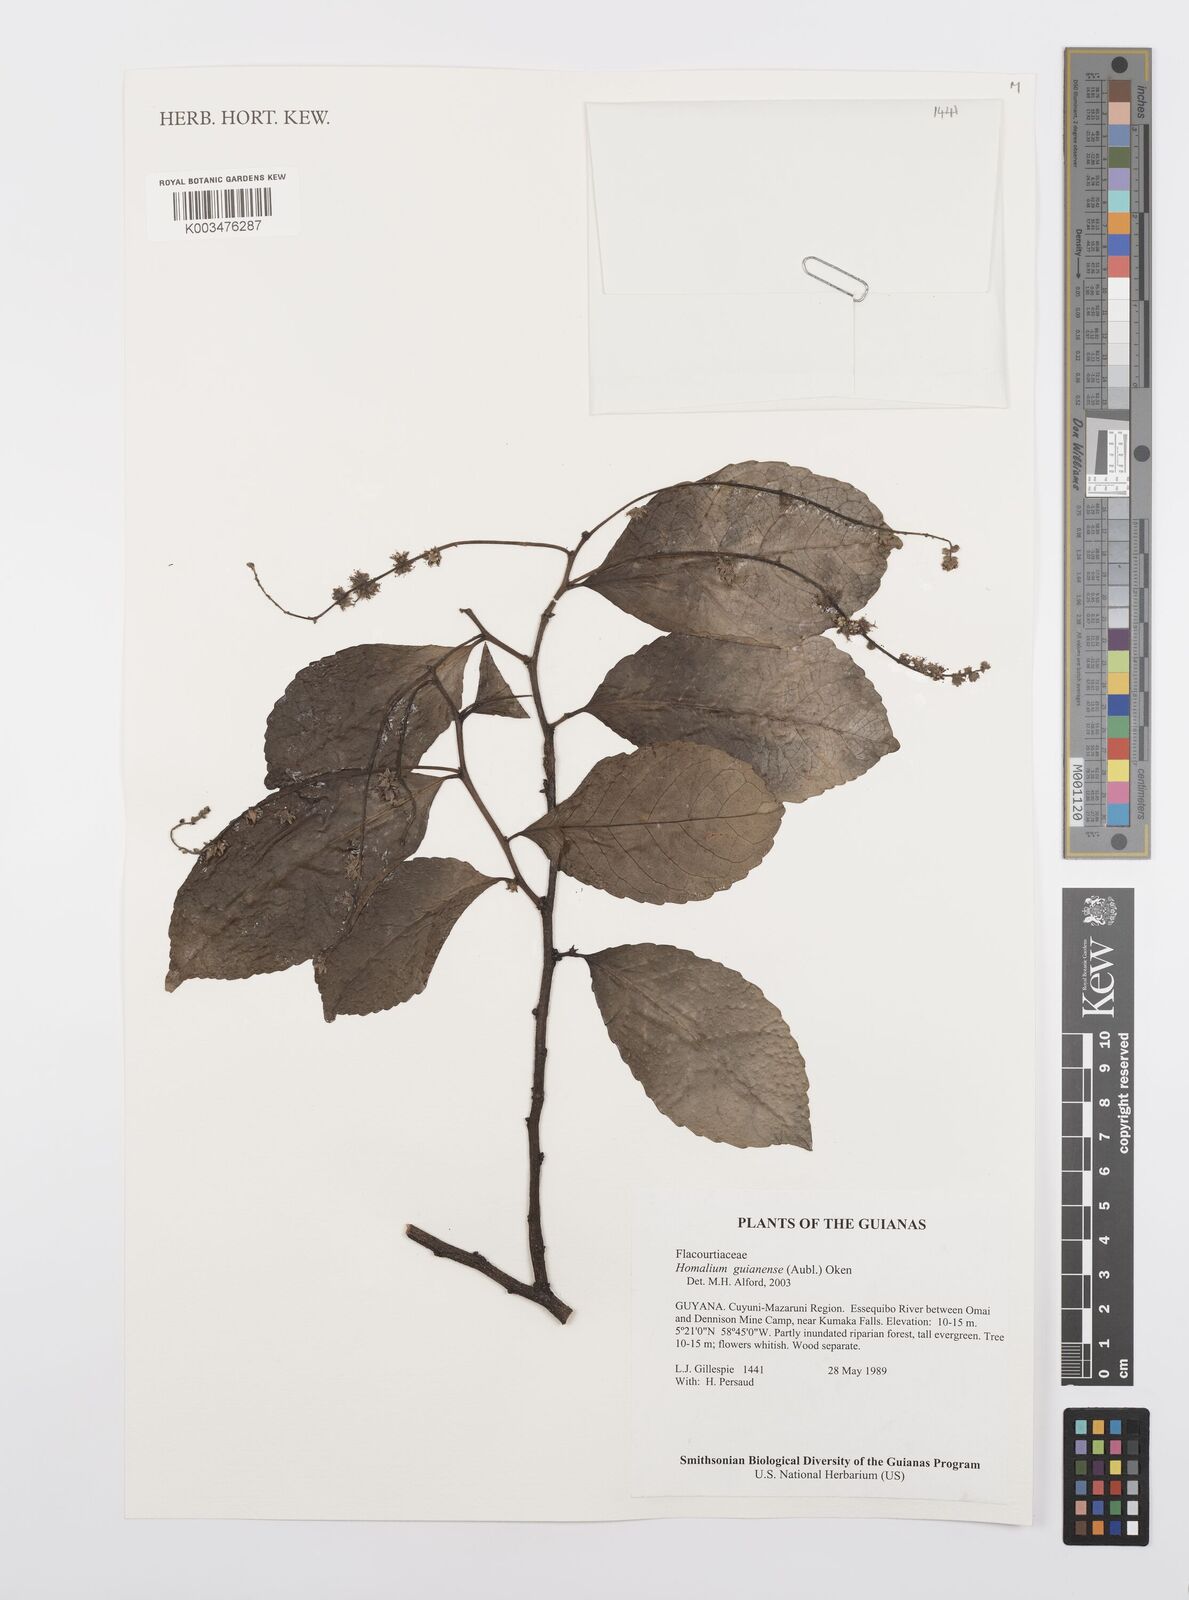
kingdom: Plantae
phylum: Tracheophyta
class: Magnoliopsida
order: Malpighiales
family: Salicaceae
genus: Homalium
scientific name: Homalium guianense
